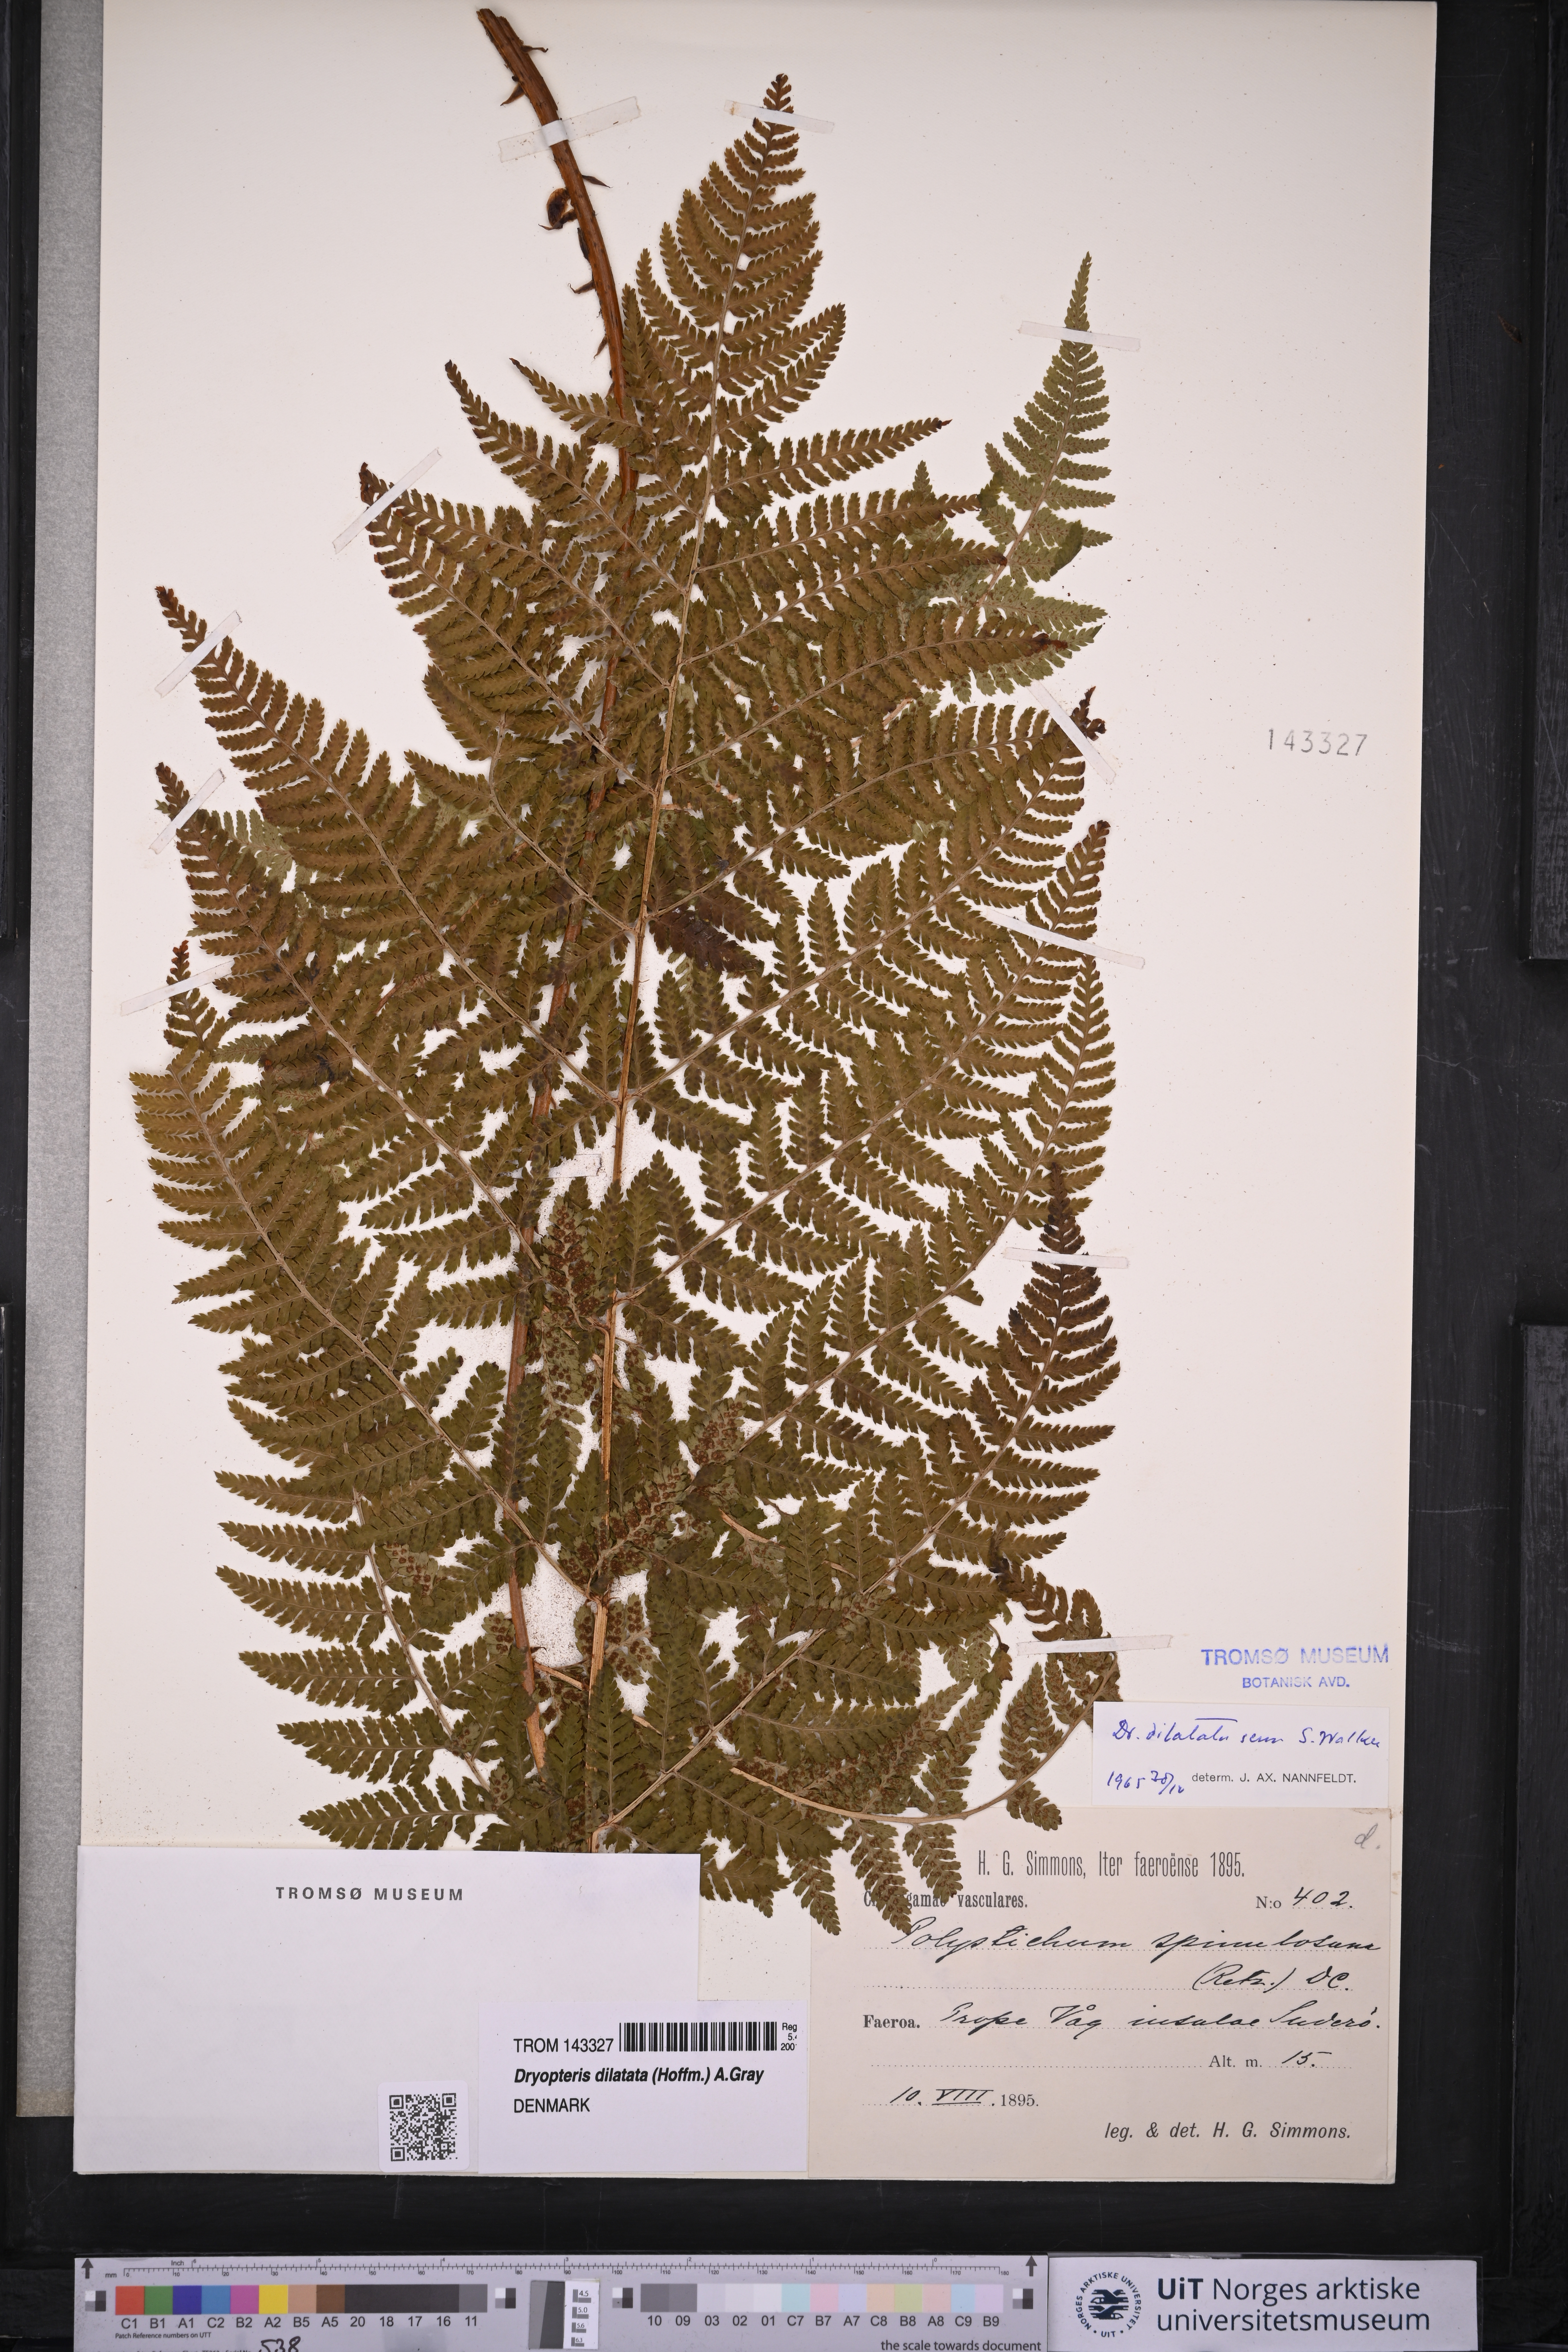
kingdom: Plantae
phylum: Tracheophyta
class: Polypodiopsida
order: Polypodiales
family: Dryopteridaceae
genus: Dryopteris
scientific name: Dryopteris dilatata
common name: Broad buckler-fern
